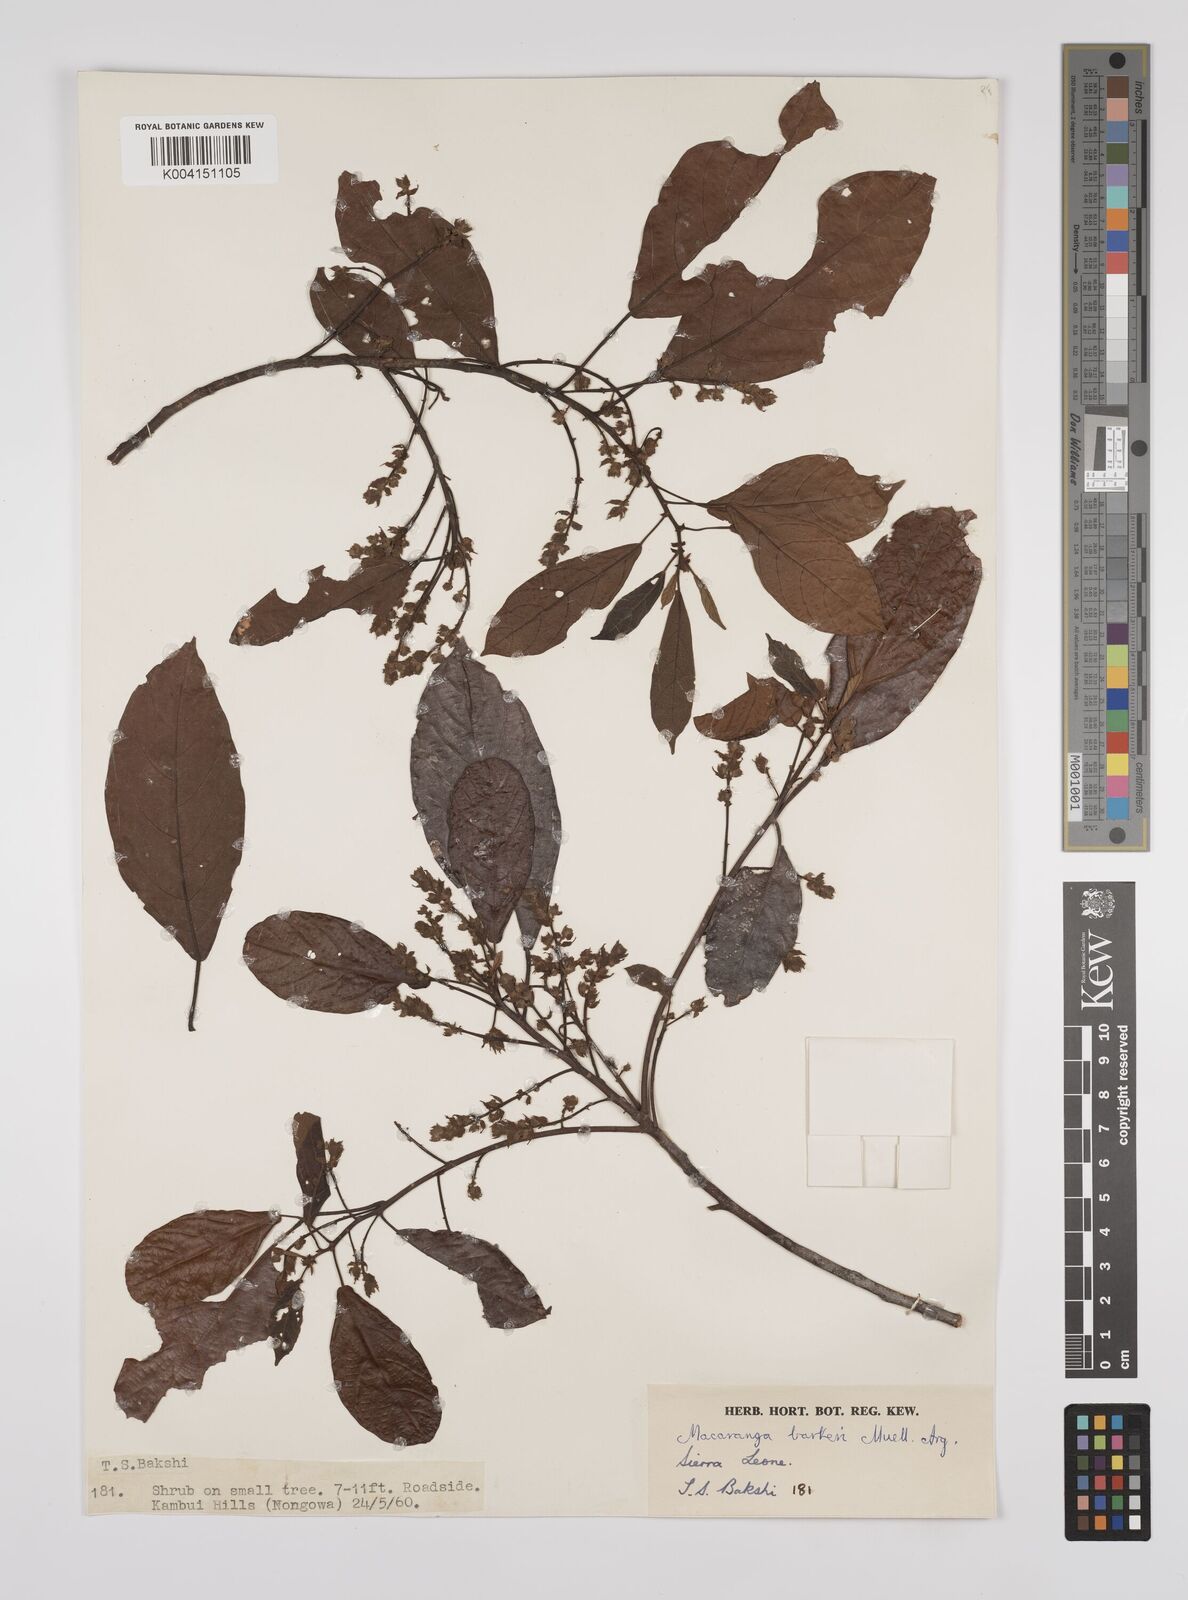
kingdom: Plantae
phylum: Tracheophyta
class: Magnoliopsida
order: Malpighiales
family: Euphorbiaceae
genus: Macaranga
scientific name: Macaranga barteri
